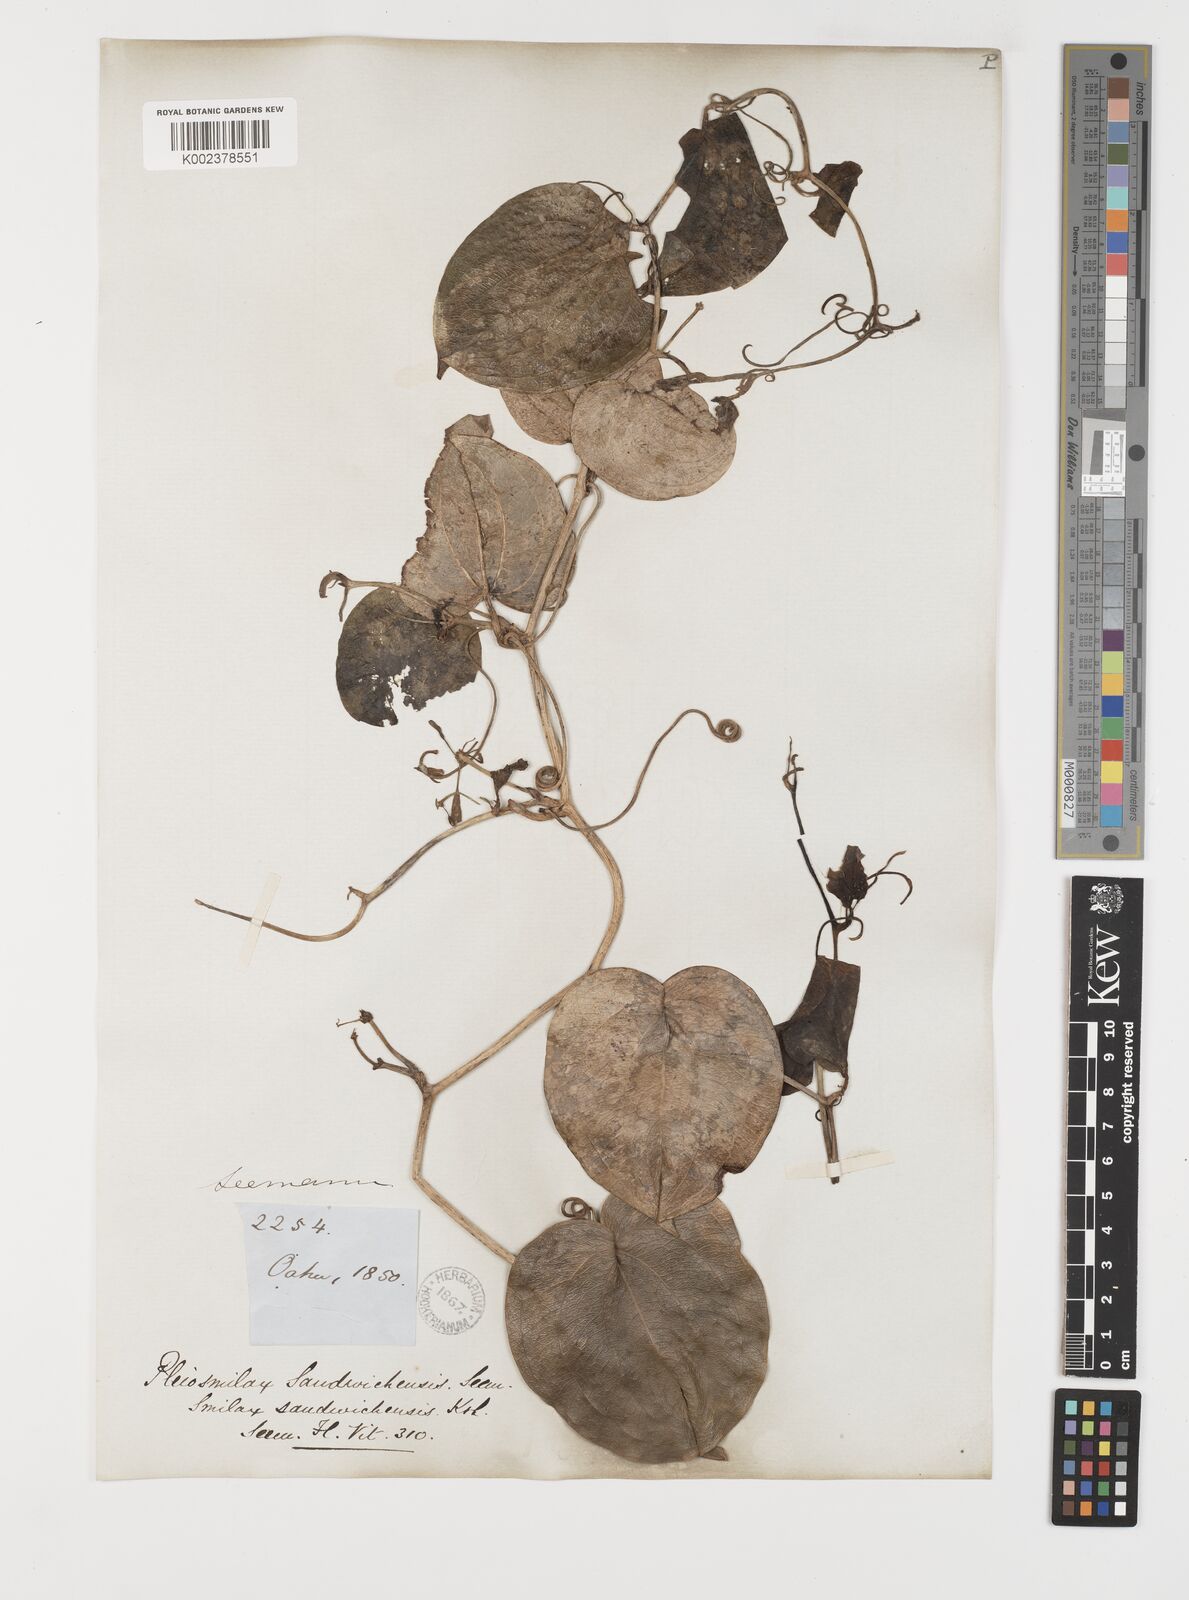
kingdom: Plantae
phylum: Tracheophyta
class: Liliopsida
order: Liliales
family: Smilacaceae
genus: Smilax
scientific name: Smilax melastomifolia
